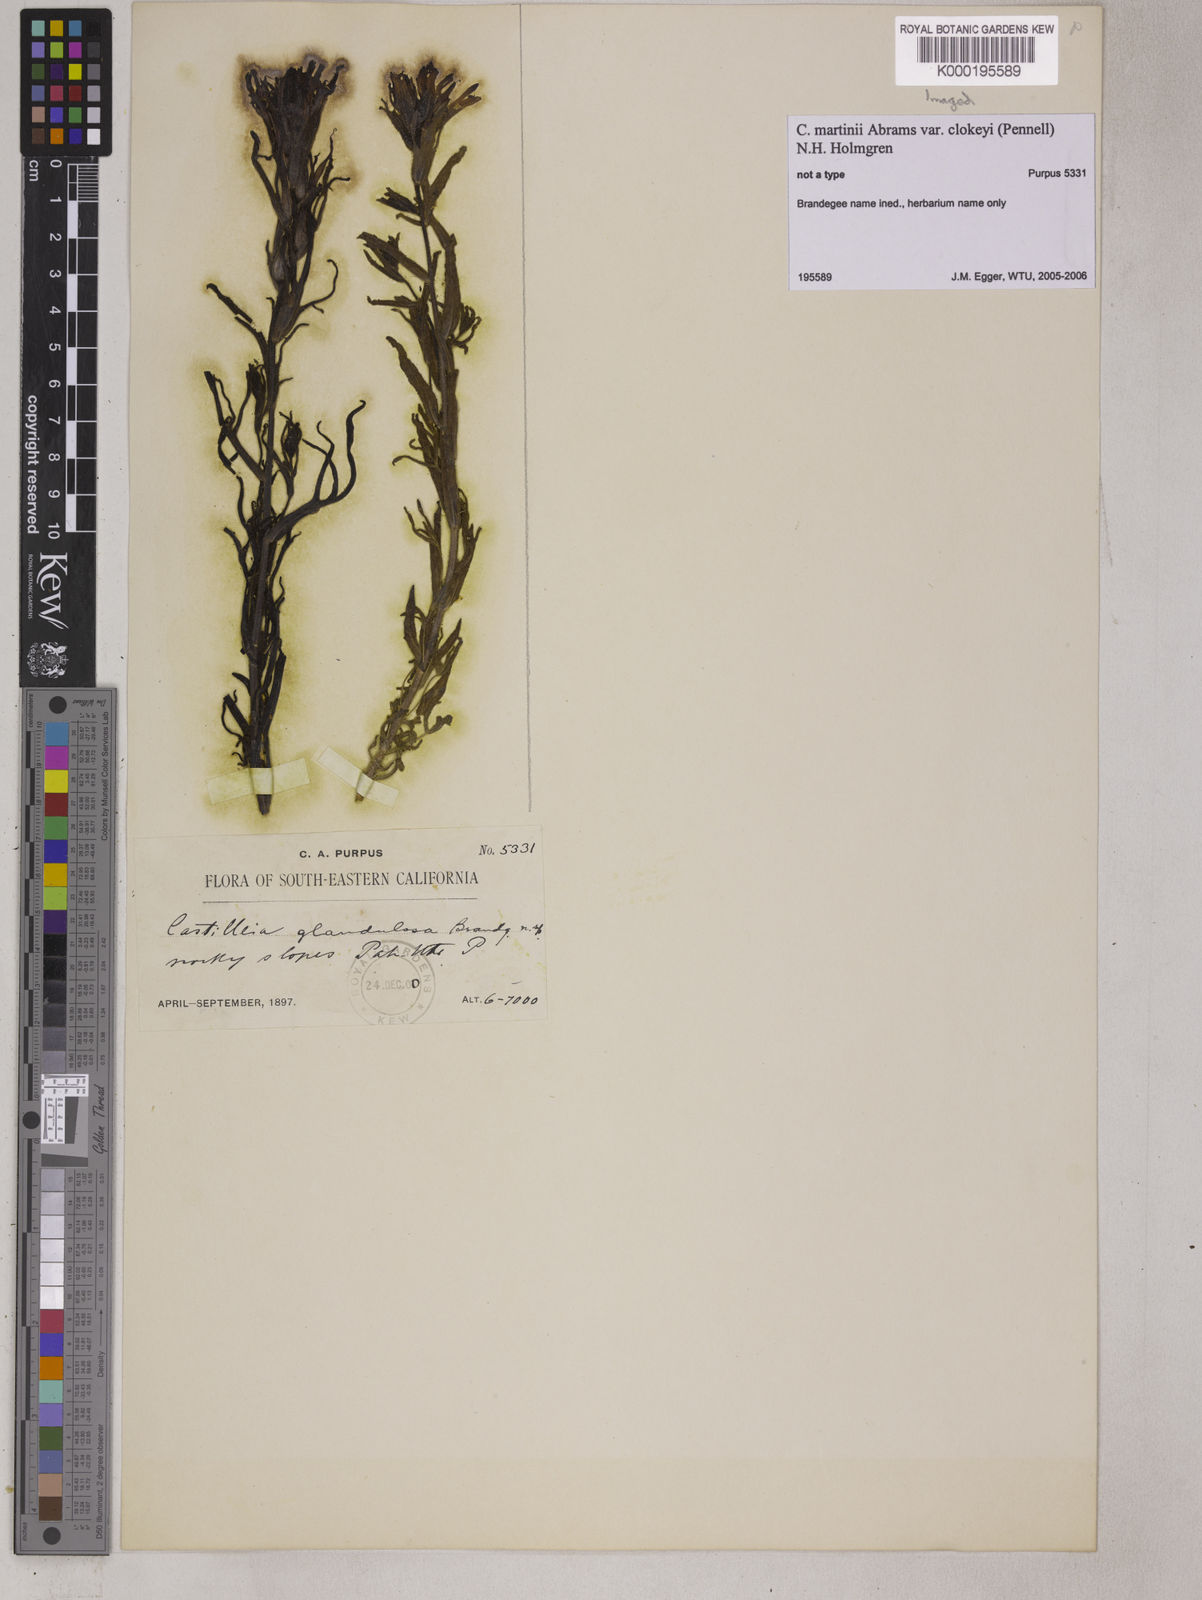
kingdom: Plantae
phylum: Tracheophyta
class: Magnoliopsida
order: Lamiales
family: Orobanchaceae
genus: Castilleja
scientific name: Castilleja martini
